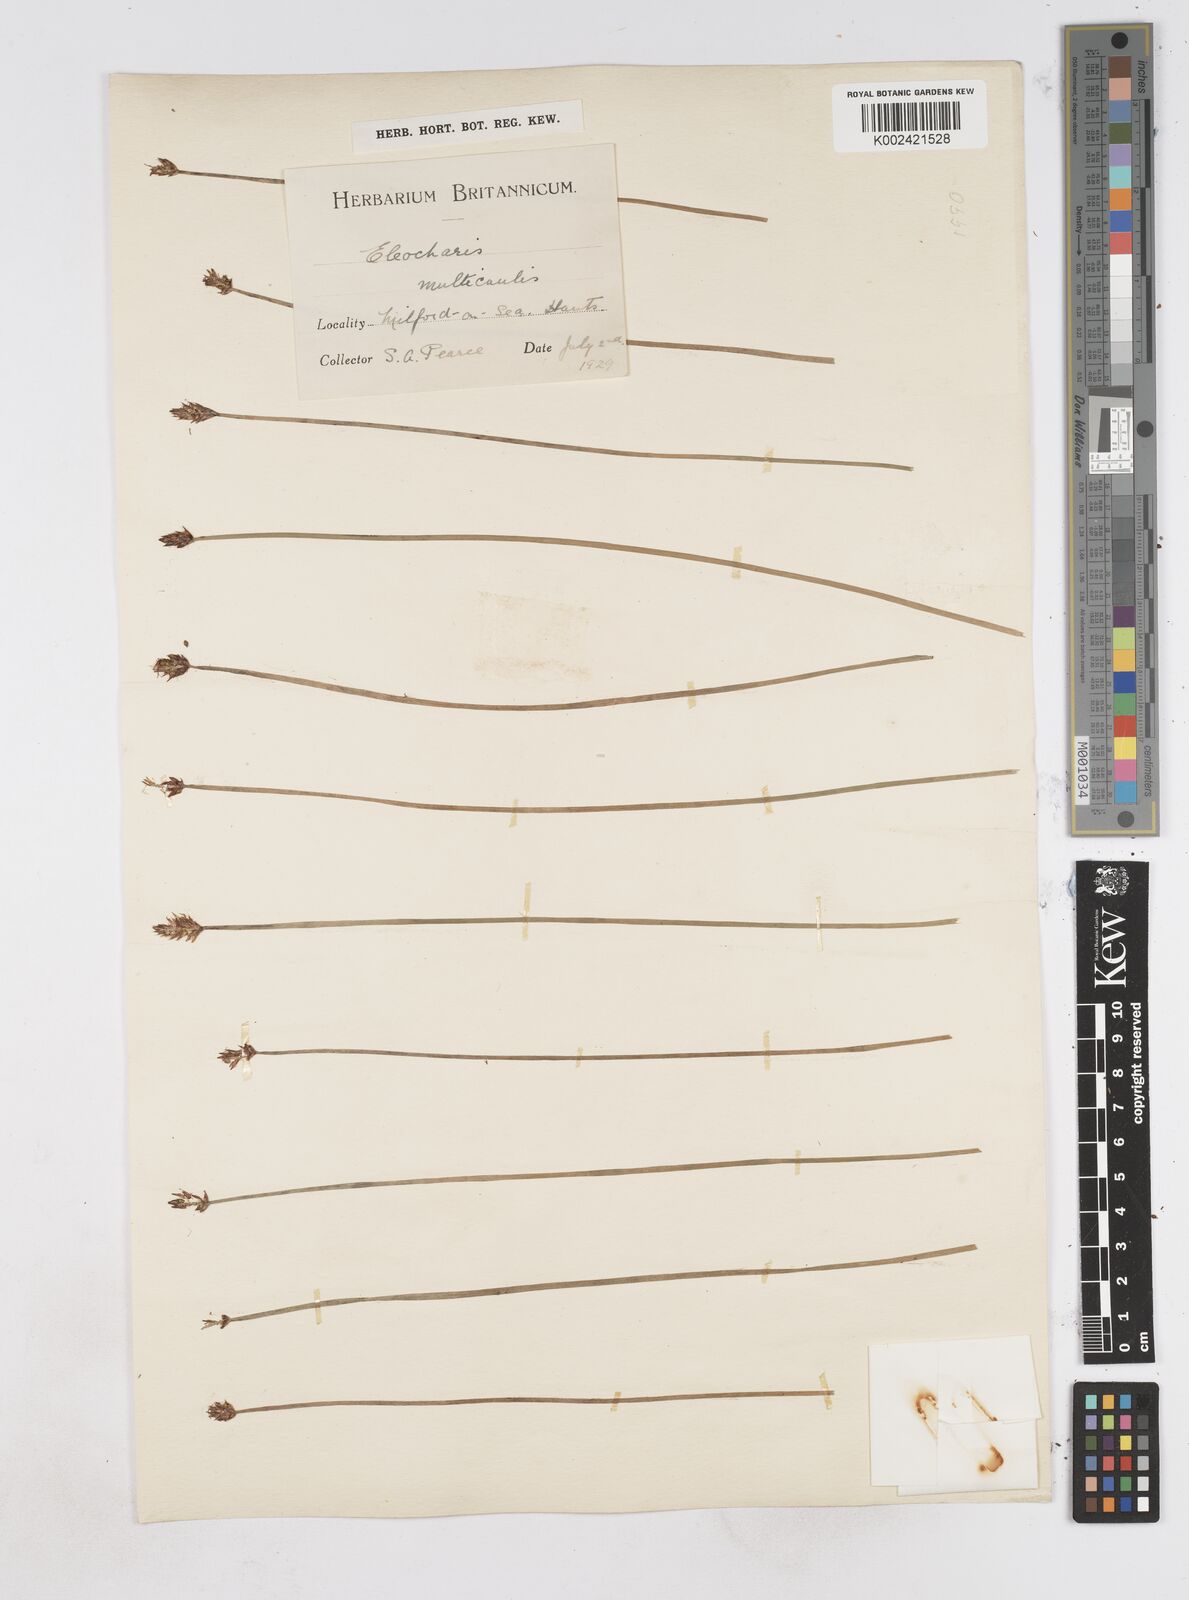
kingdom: Plantae
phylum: Tracheophyta
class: Liliopsida
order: Poales
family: Cyperaceae
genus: Eleocharis
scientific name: Eleocharis multicaulis
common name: Many-stalked spike-rush
